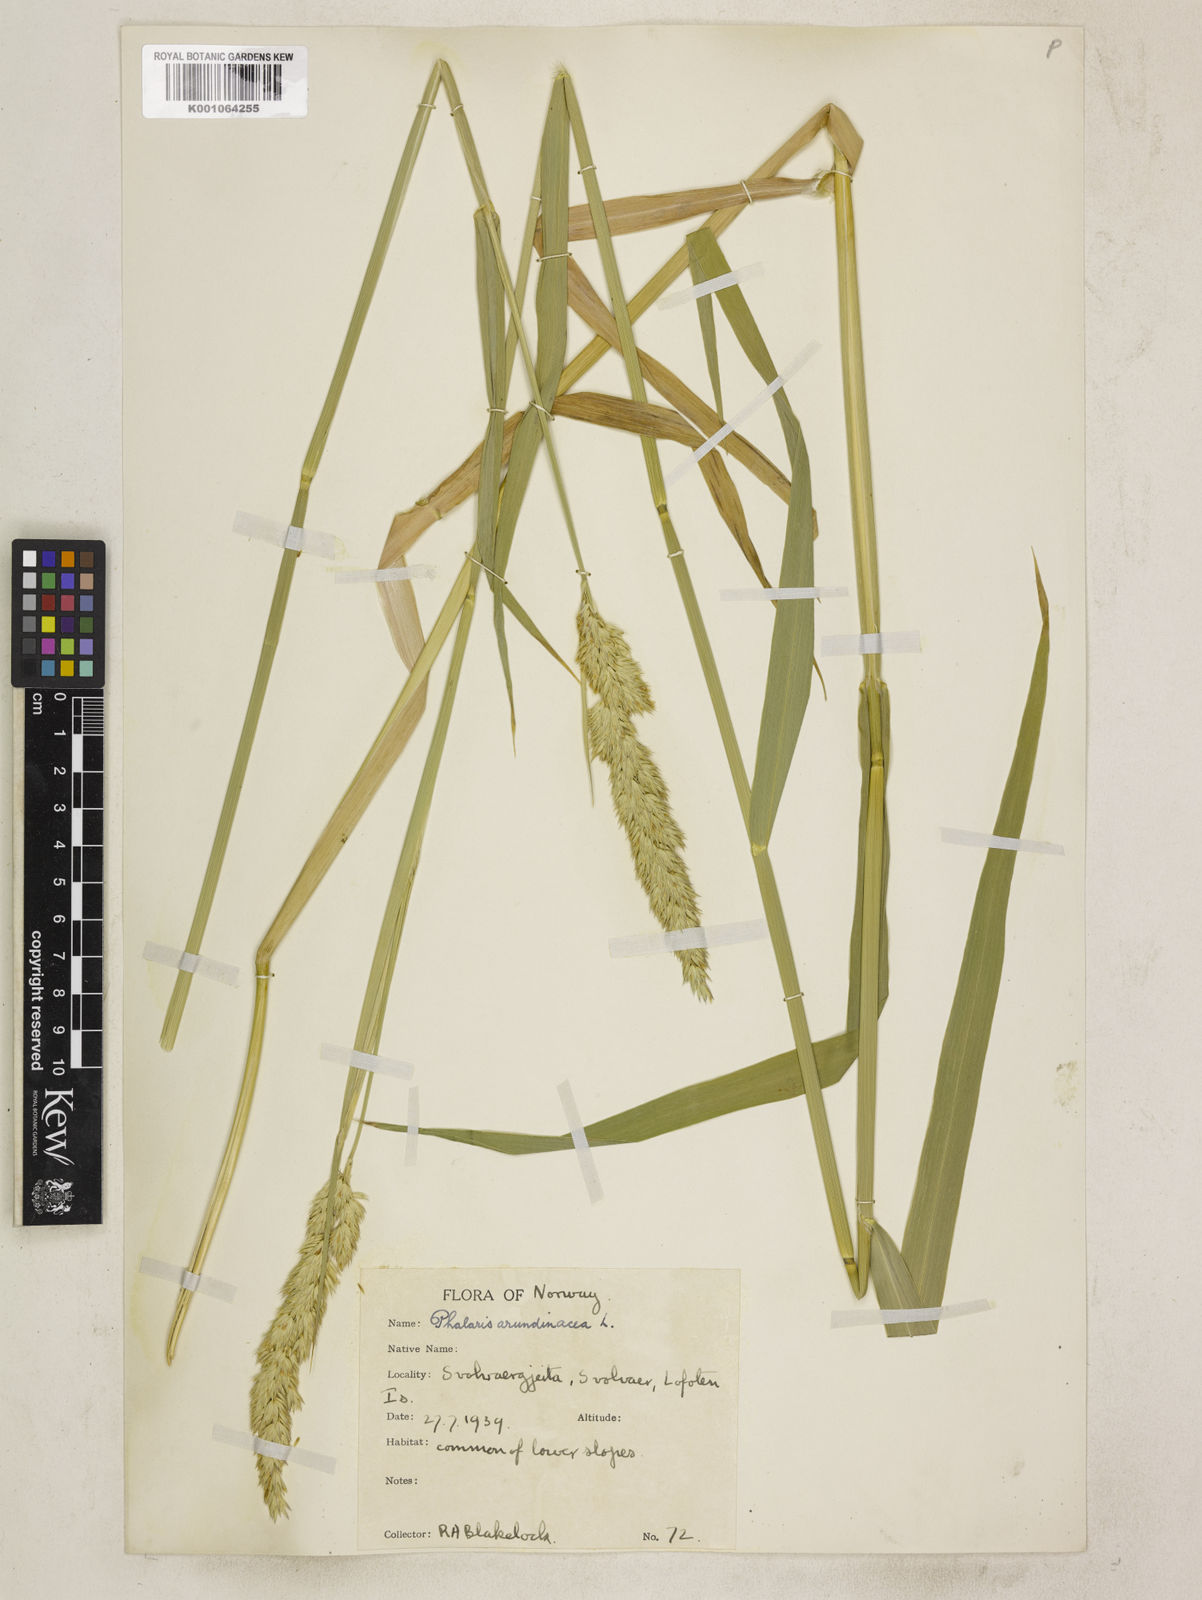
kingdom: Plantae
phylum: Tracheophyta
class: Liliopsida
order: Poales
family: Poaceae
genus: Phalaris
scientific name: Phalaris arundinacea
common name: Reed canary-grass
